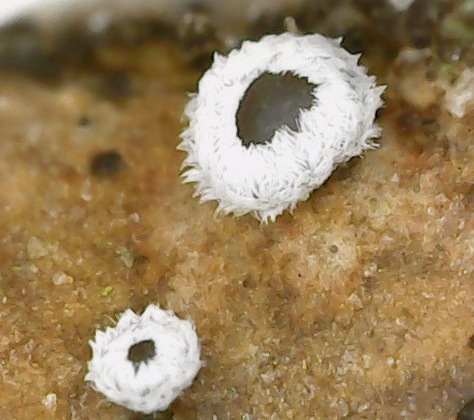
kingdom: Fungi
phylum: Basidiomycota
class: Agaricomycetes
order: Agaricales
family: Niaceae
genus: Lachnella
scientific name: Lachnella alboviolascens
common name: grå frynserede
